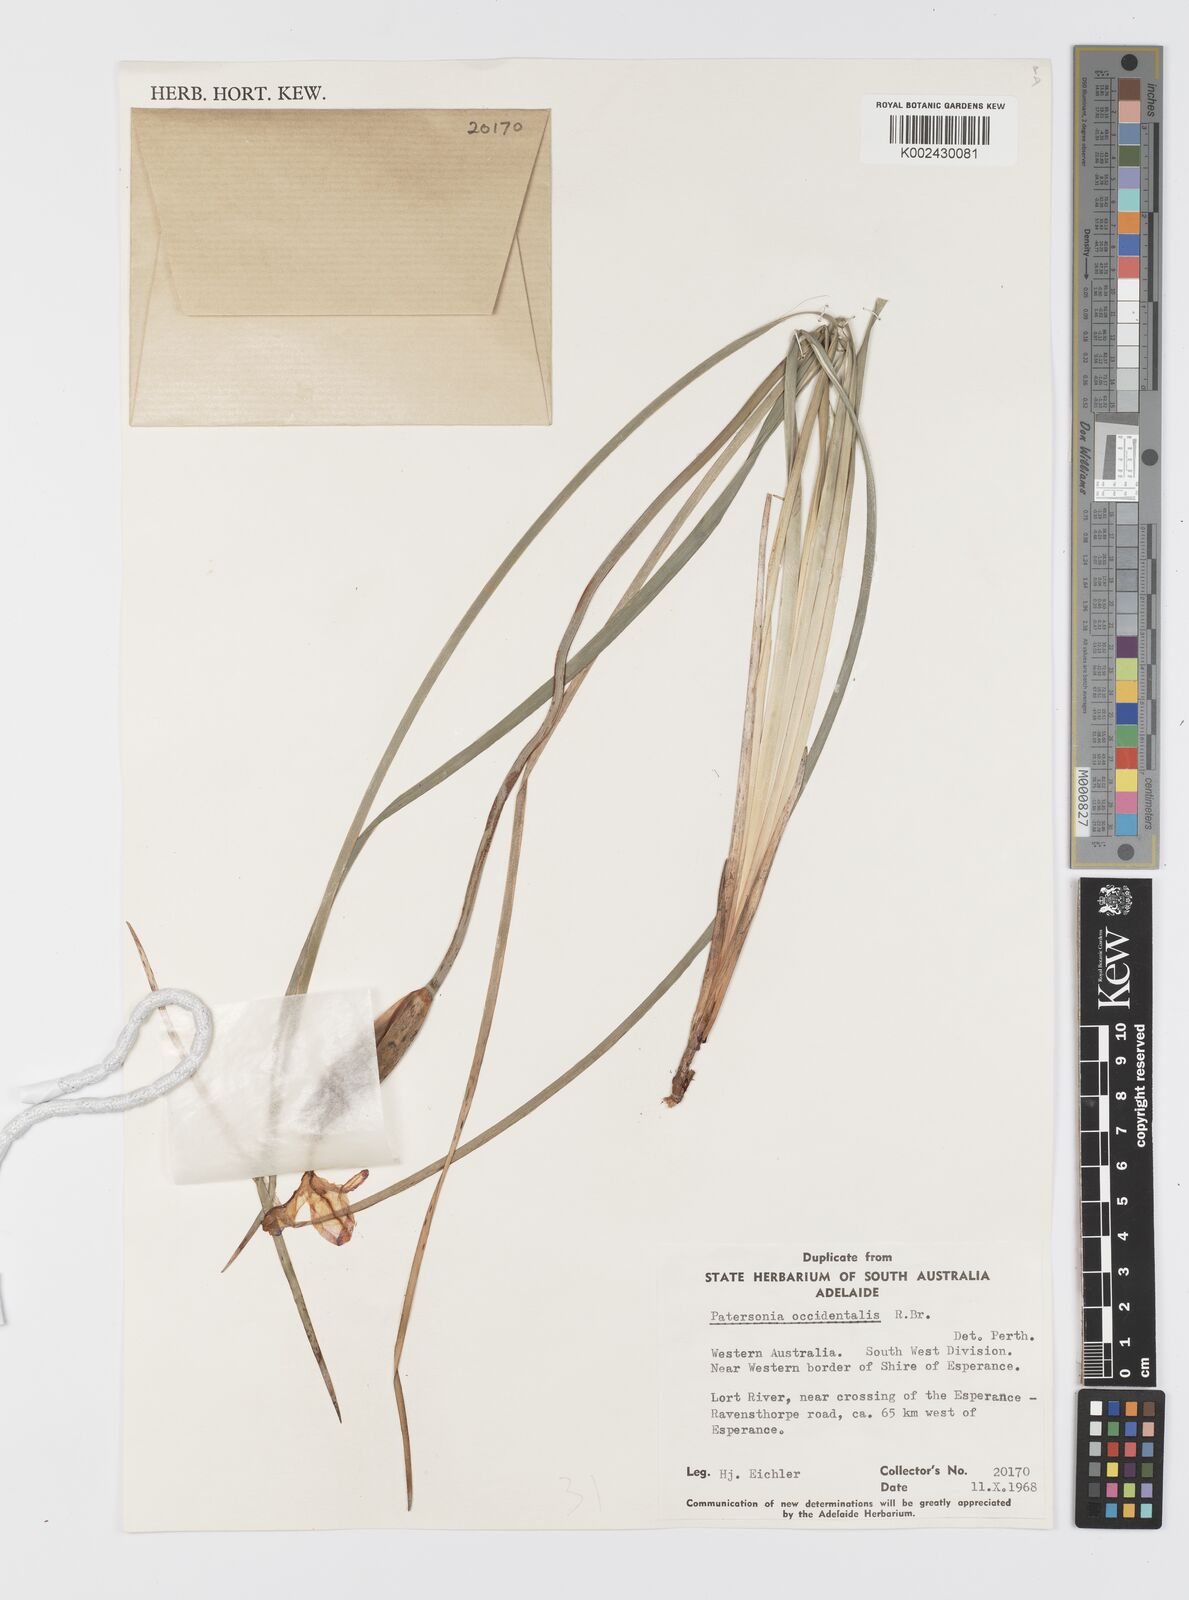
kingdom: Plantae
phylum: Tracheophyta
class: Liliopsida
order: Asparagales
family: Iridaceae
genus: Patersonia
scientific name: Patersonia occidentalis
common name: Long purple-flag
